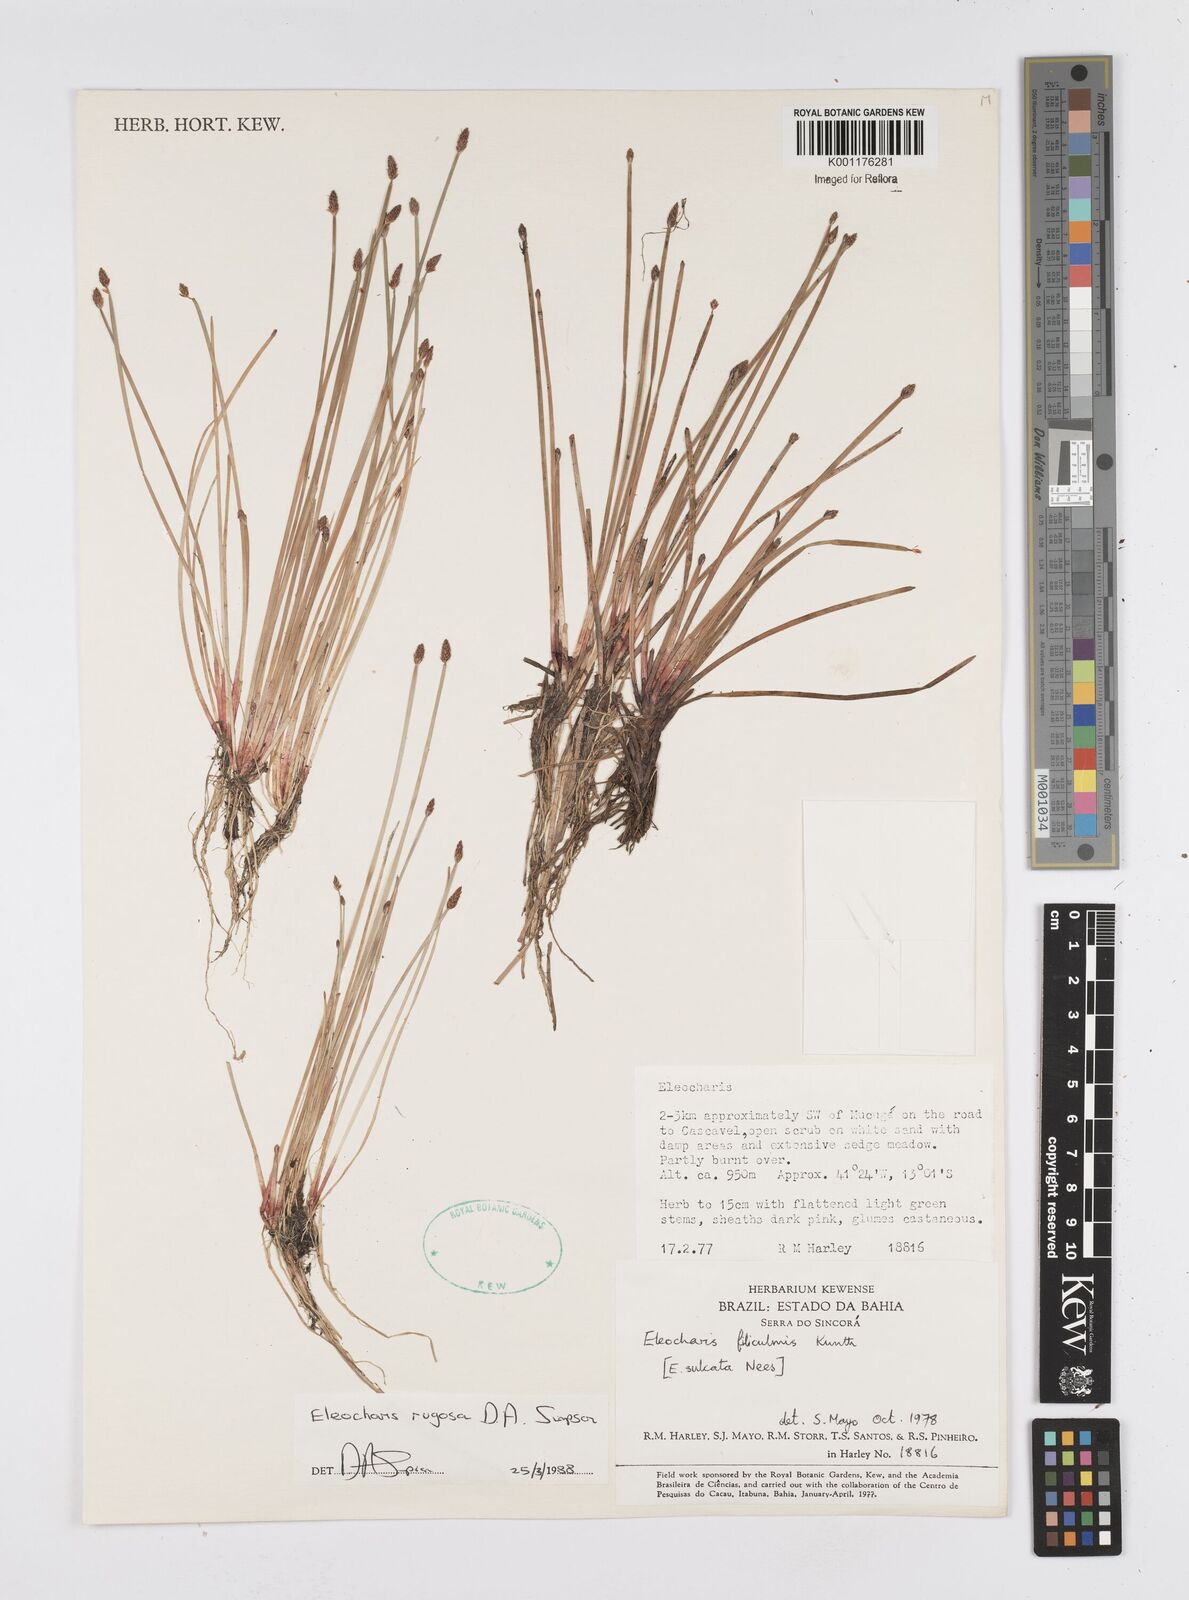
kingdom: Plantae
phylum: Tracheophyta
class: Liliopsida
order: Poales
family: Cyperaceae
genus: Eleocharis
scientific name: Eleocharis rugosa
